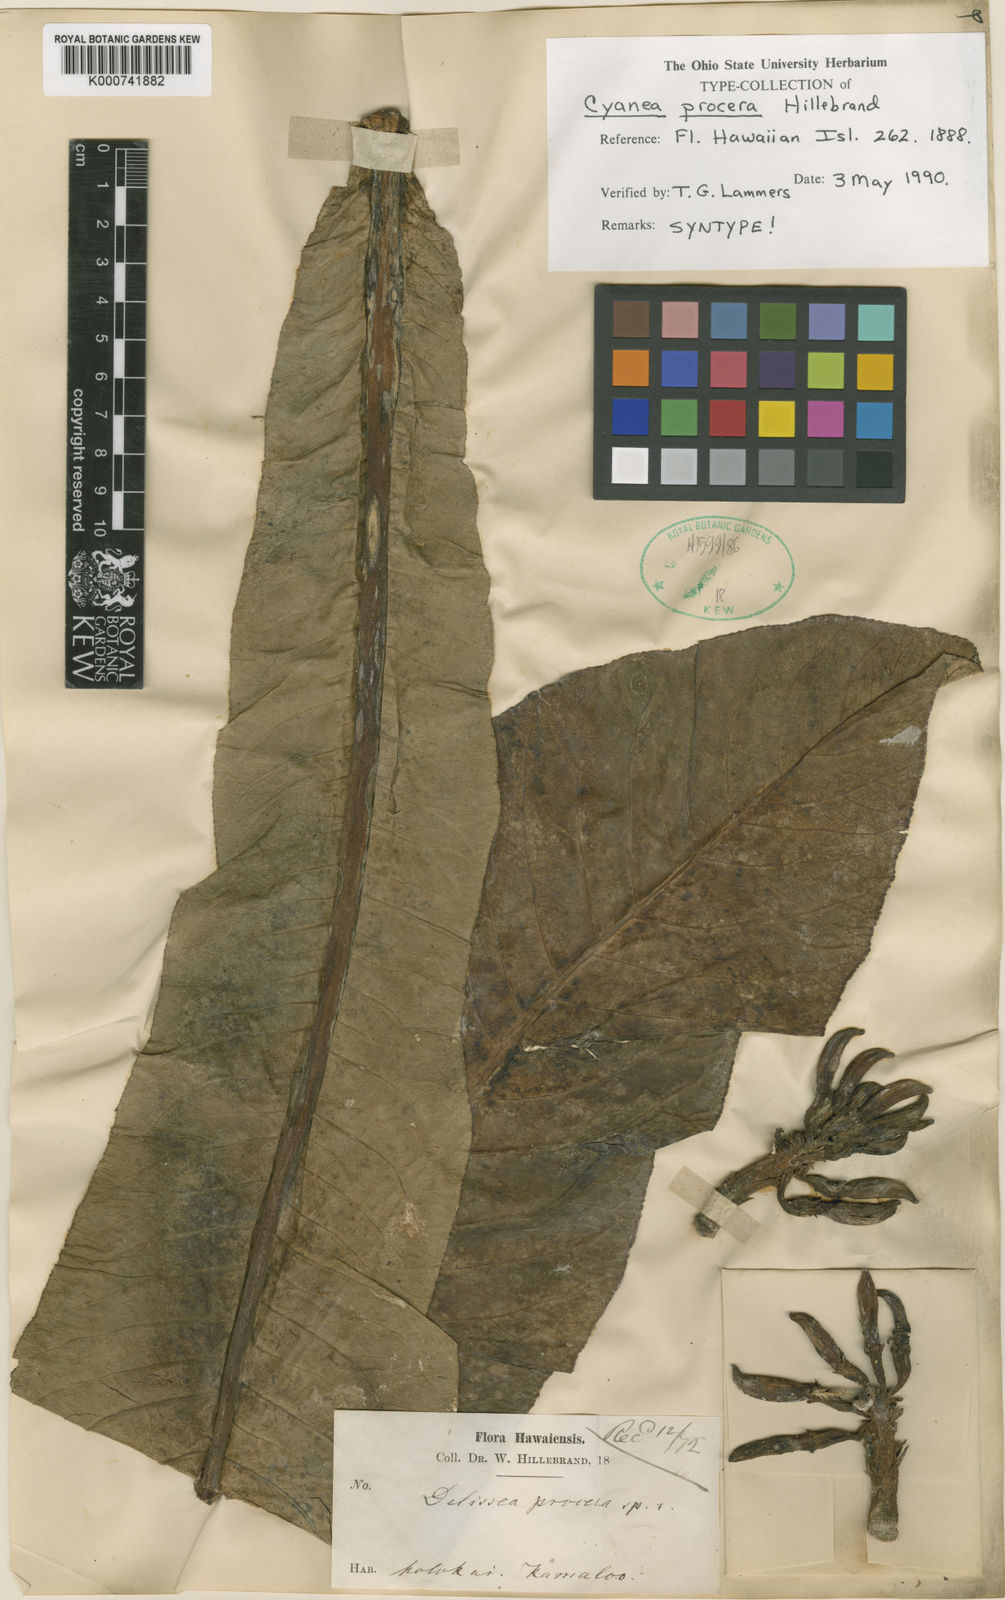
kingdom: Plantae
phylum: Tracheophyta
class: Magnoliopsida
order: Asterales
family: Campanulaceae
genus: Cyanea
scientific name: Cyanea procera
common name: Haha
